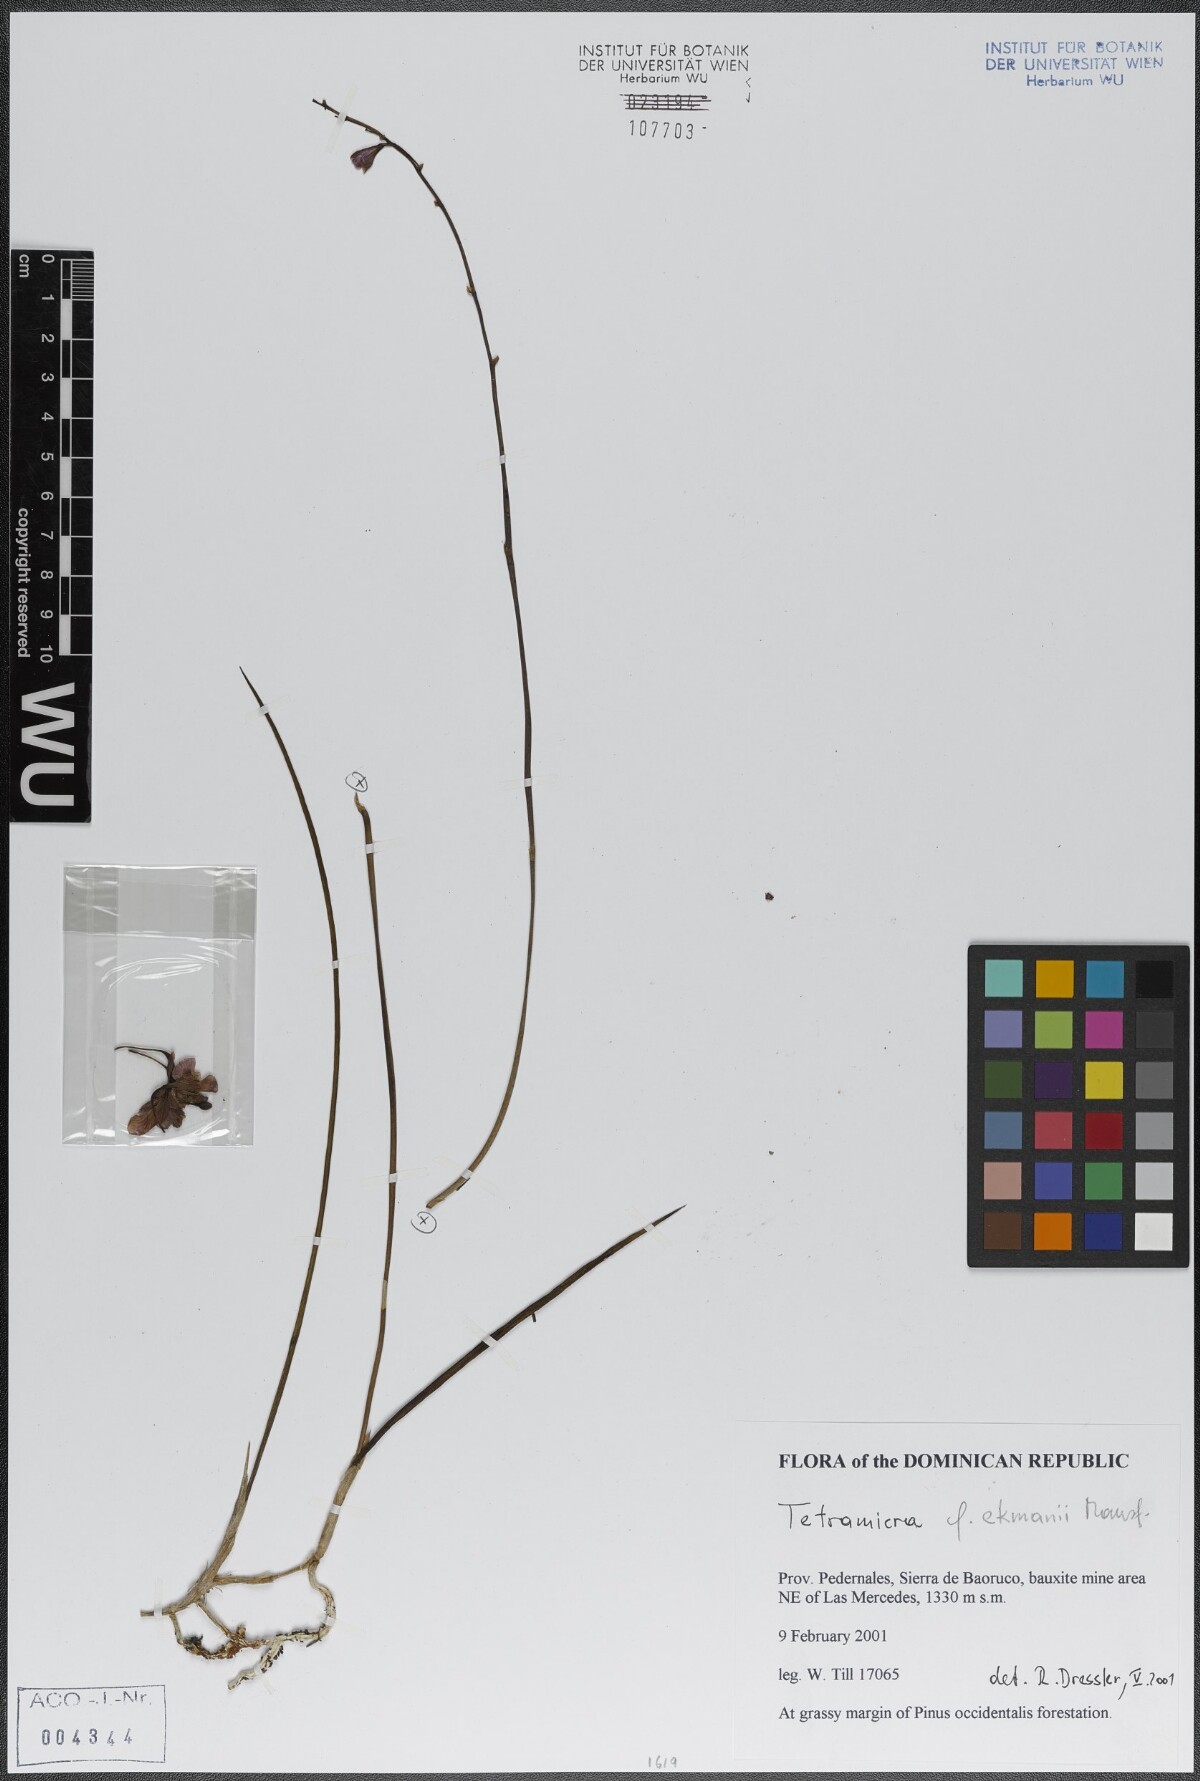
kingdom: Plantae
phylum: Tracheophyta
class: Liliopsida
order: Asparagales
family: Orchidaceae
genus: Tetramicra
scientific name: Tetramicra ekmanii
